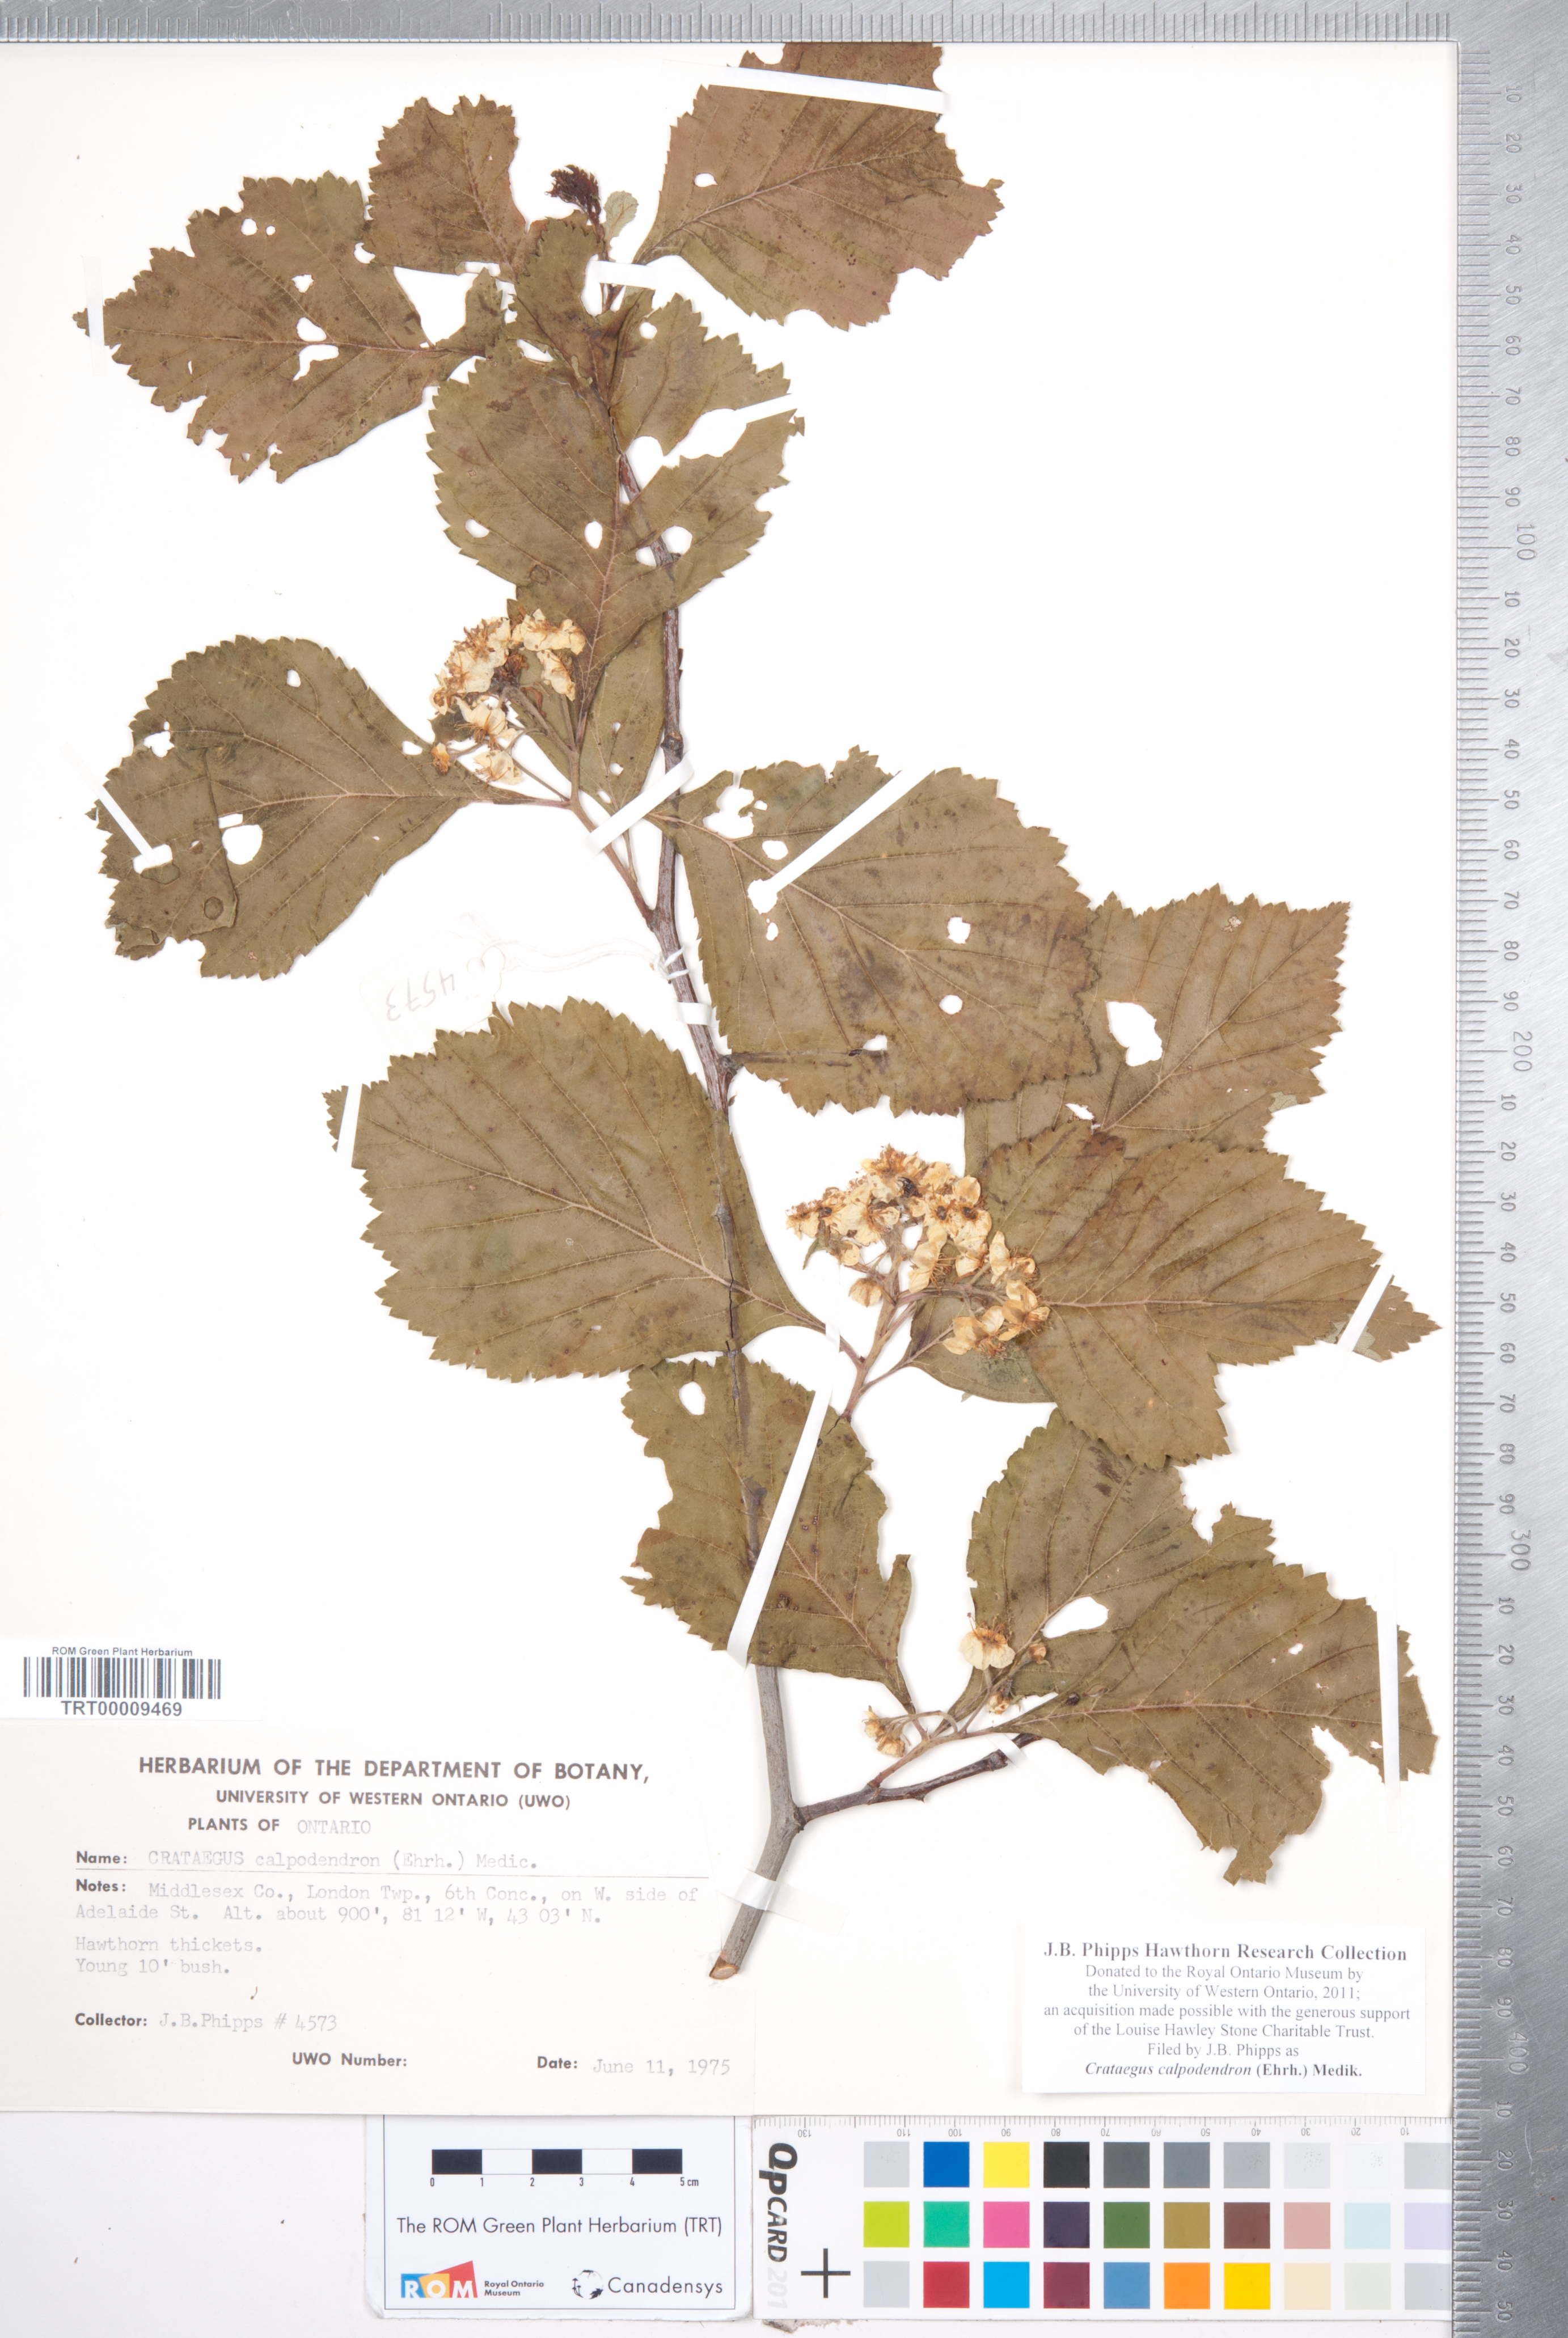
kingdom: Plantae
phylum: Tracheophyta
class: Magnoliopsida
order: Rosales
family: Rosaceae
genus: Crataegus
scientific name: Crataegus calpodendron
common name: Pear hawthorn
